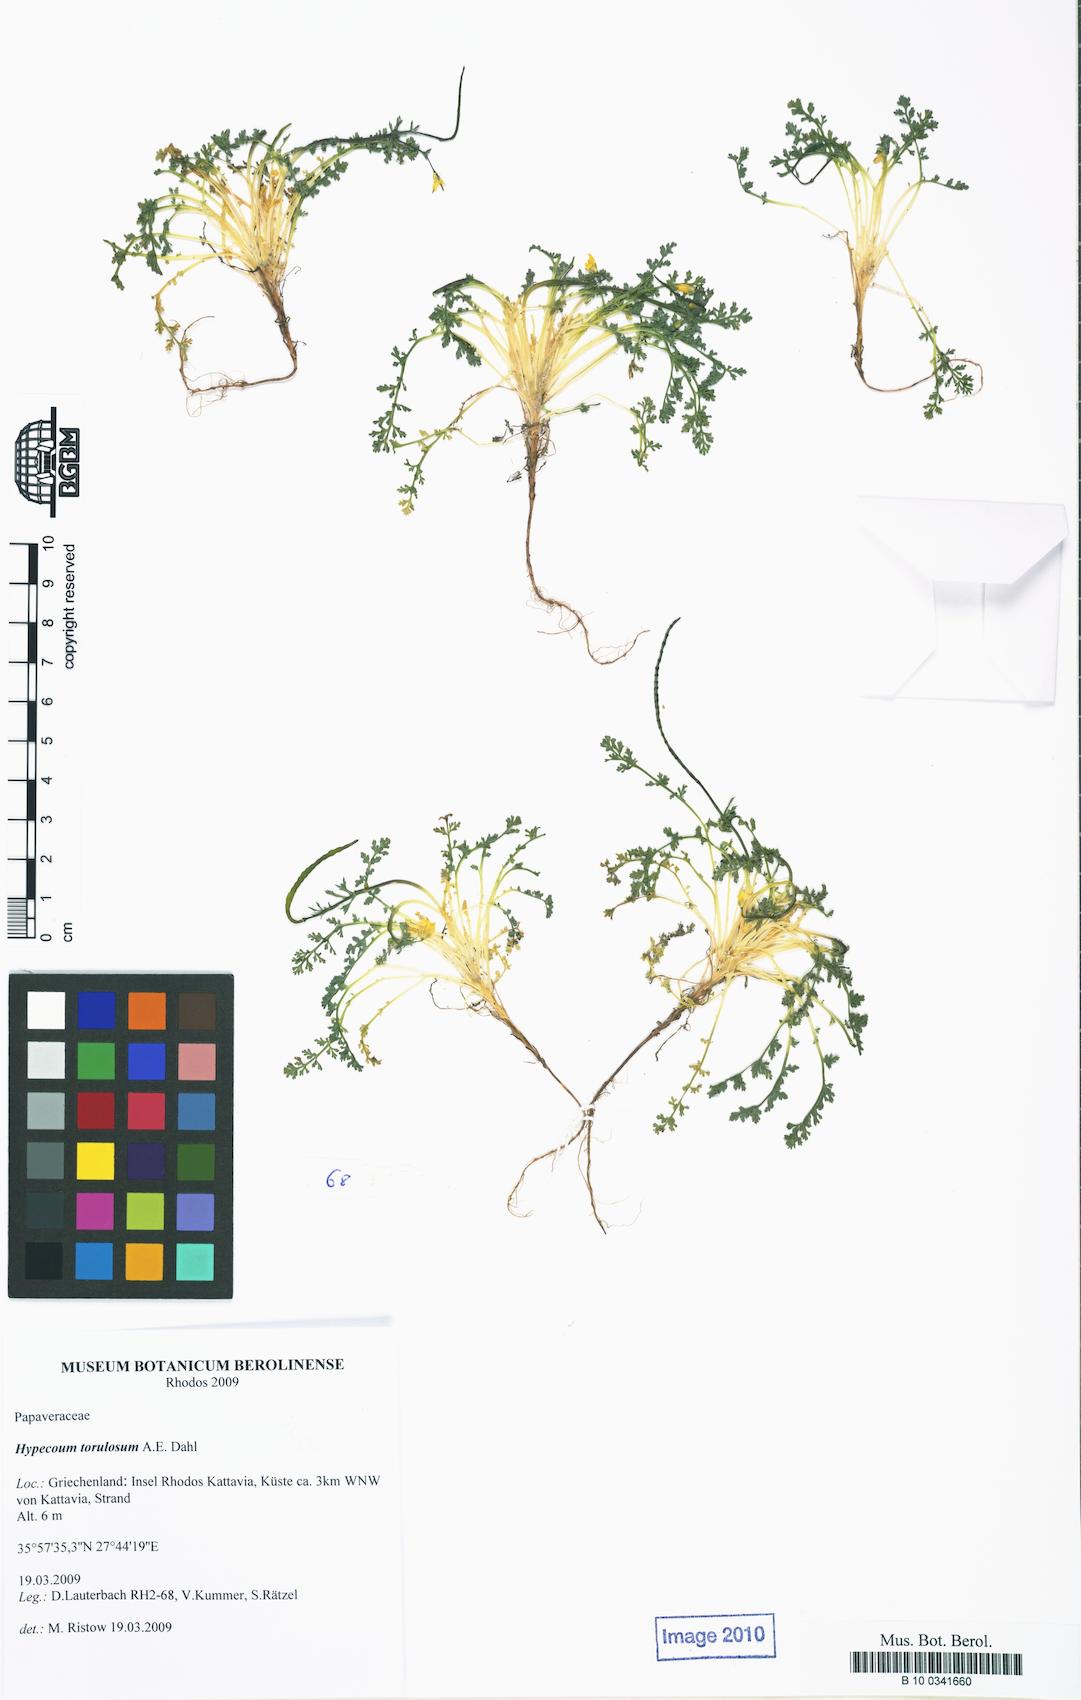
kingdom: Plantae
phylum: Tracheophyta
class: Magnoliopsida
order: Ranunculales
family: Papaveraceae
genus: Hypecoum
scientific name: Hypecoum torulosum
